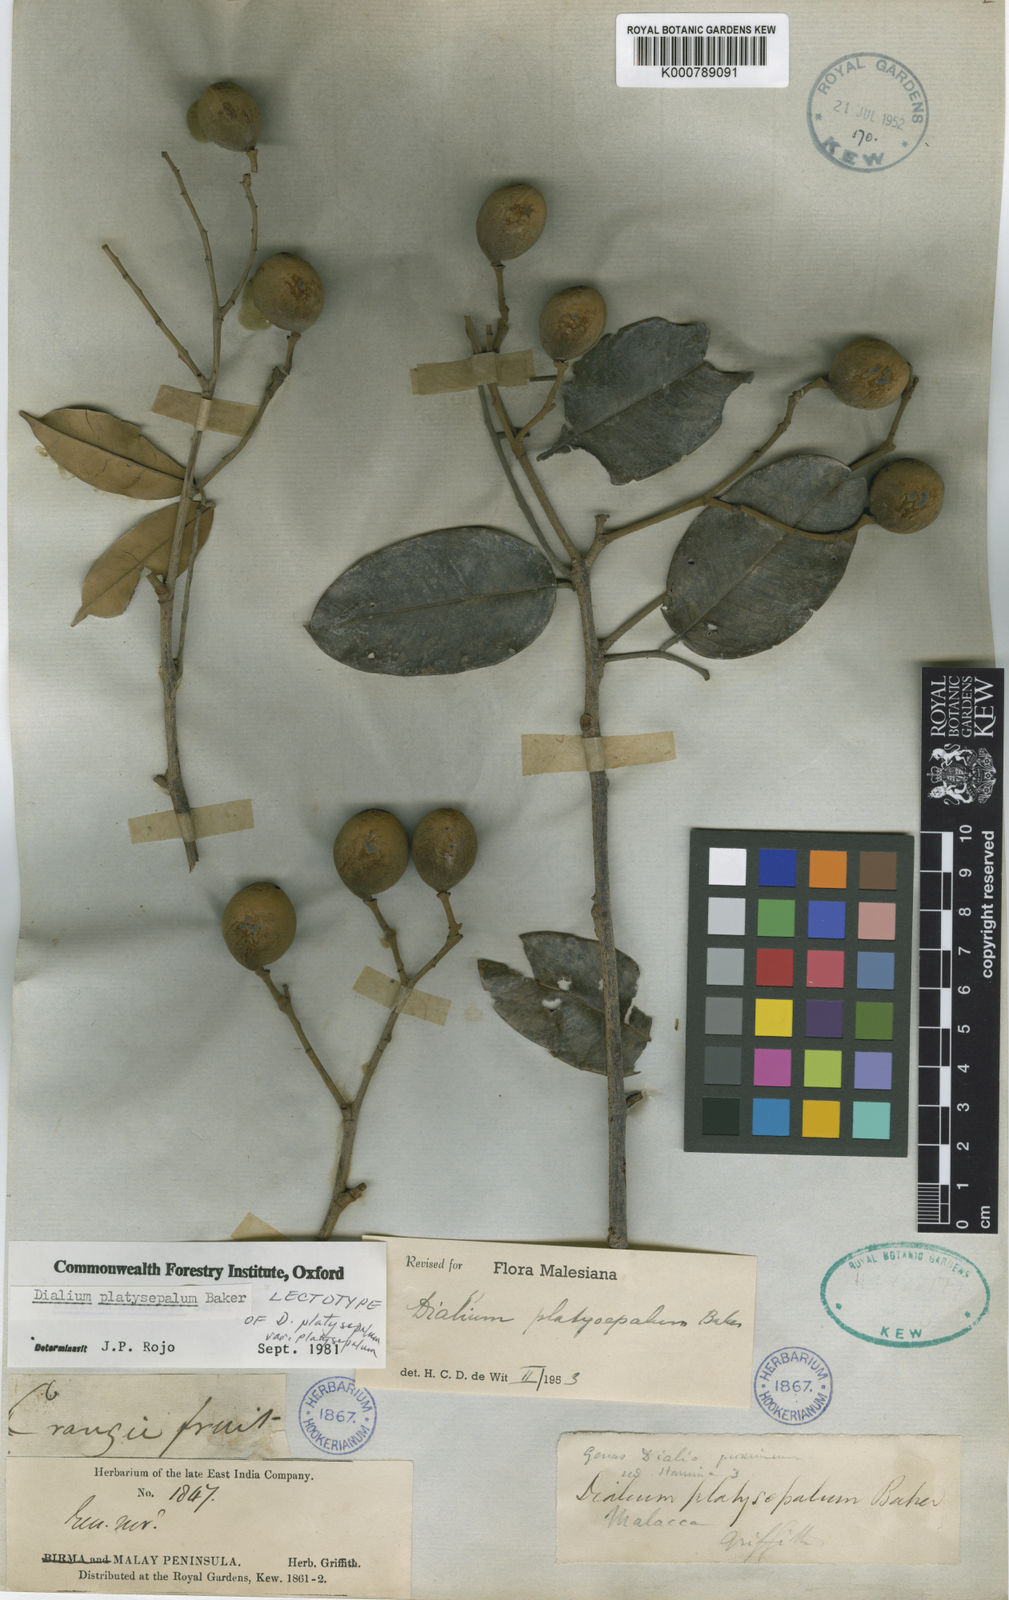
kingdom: Plantae
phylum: Tracheophyta
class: Magnoliopsida
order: Fabales
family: Fabaceae
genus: Dialium
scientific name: Dialium platysepalum
